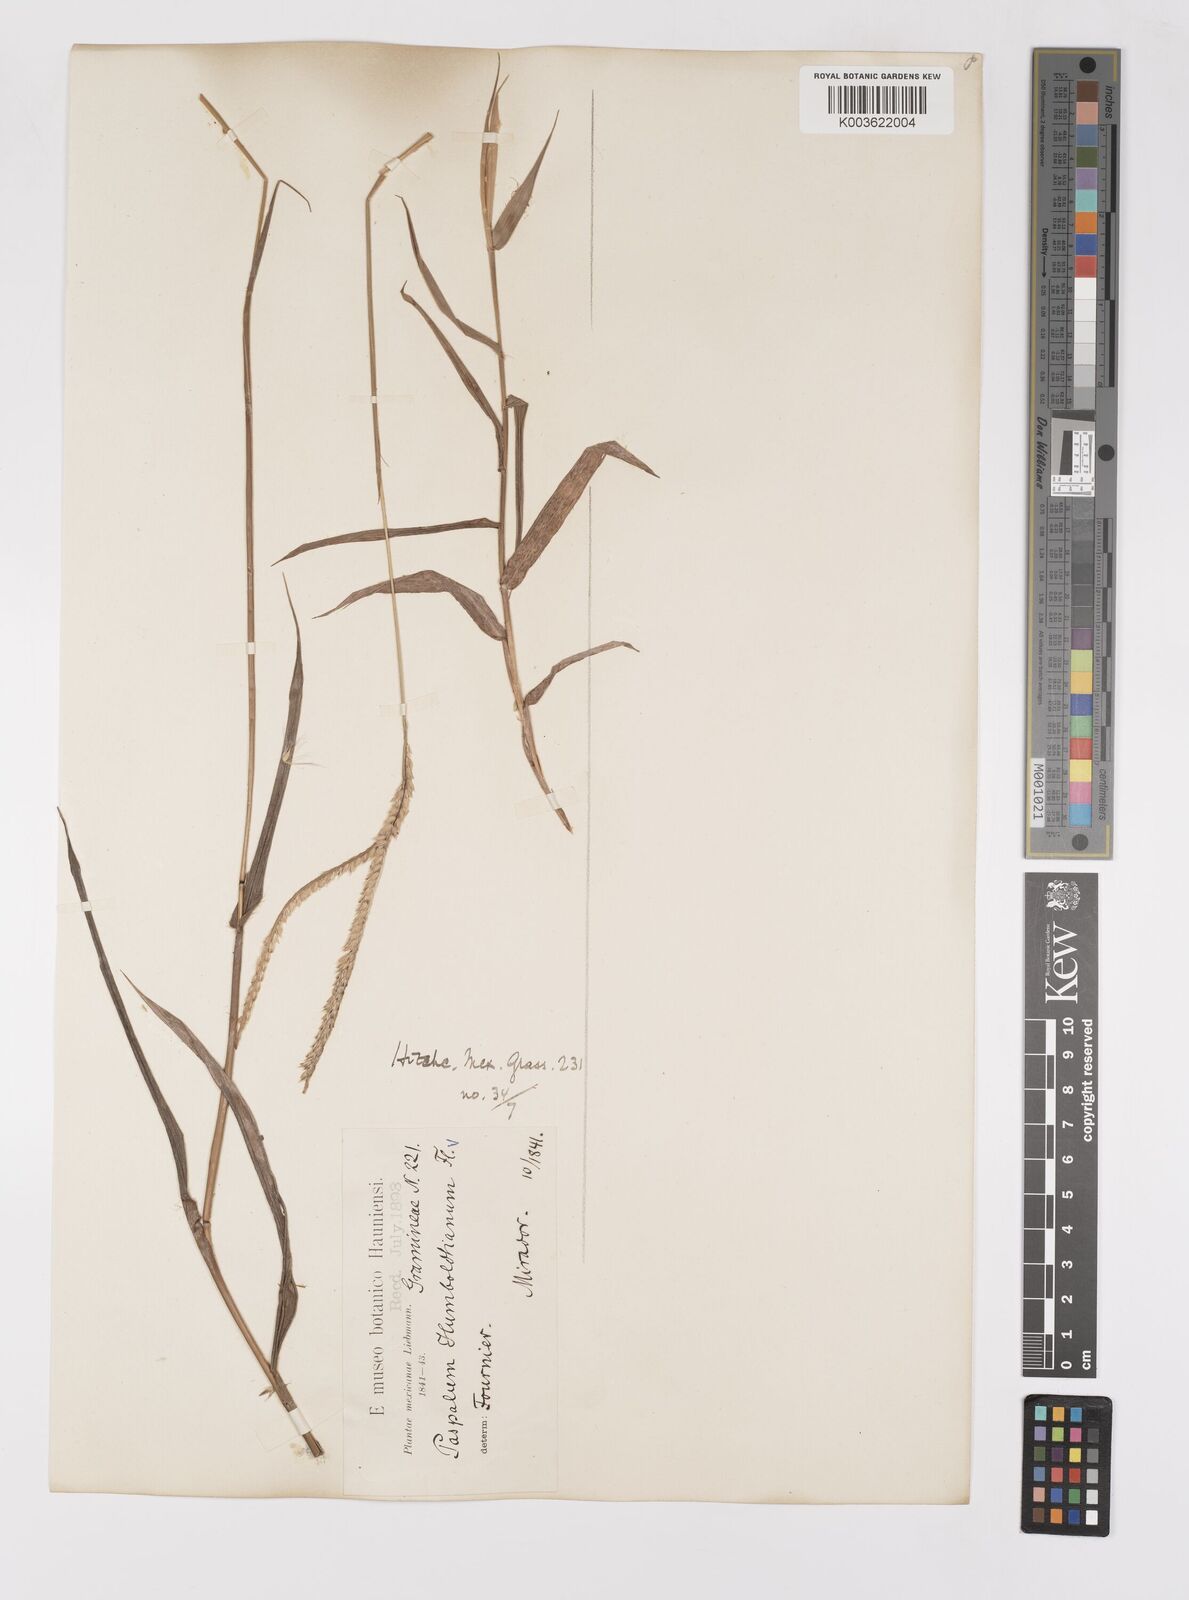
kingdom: Plantae
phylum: Tracheophyta
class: Liliopsida
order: Poales
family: Poaceae
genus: Paspalum
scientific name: Paspalum humboldtianum
